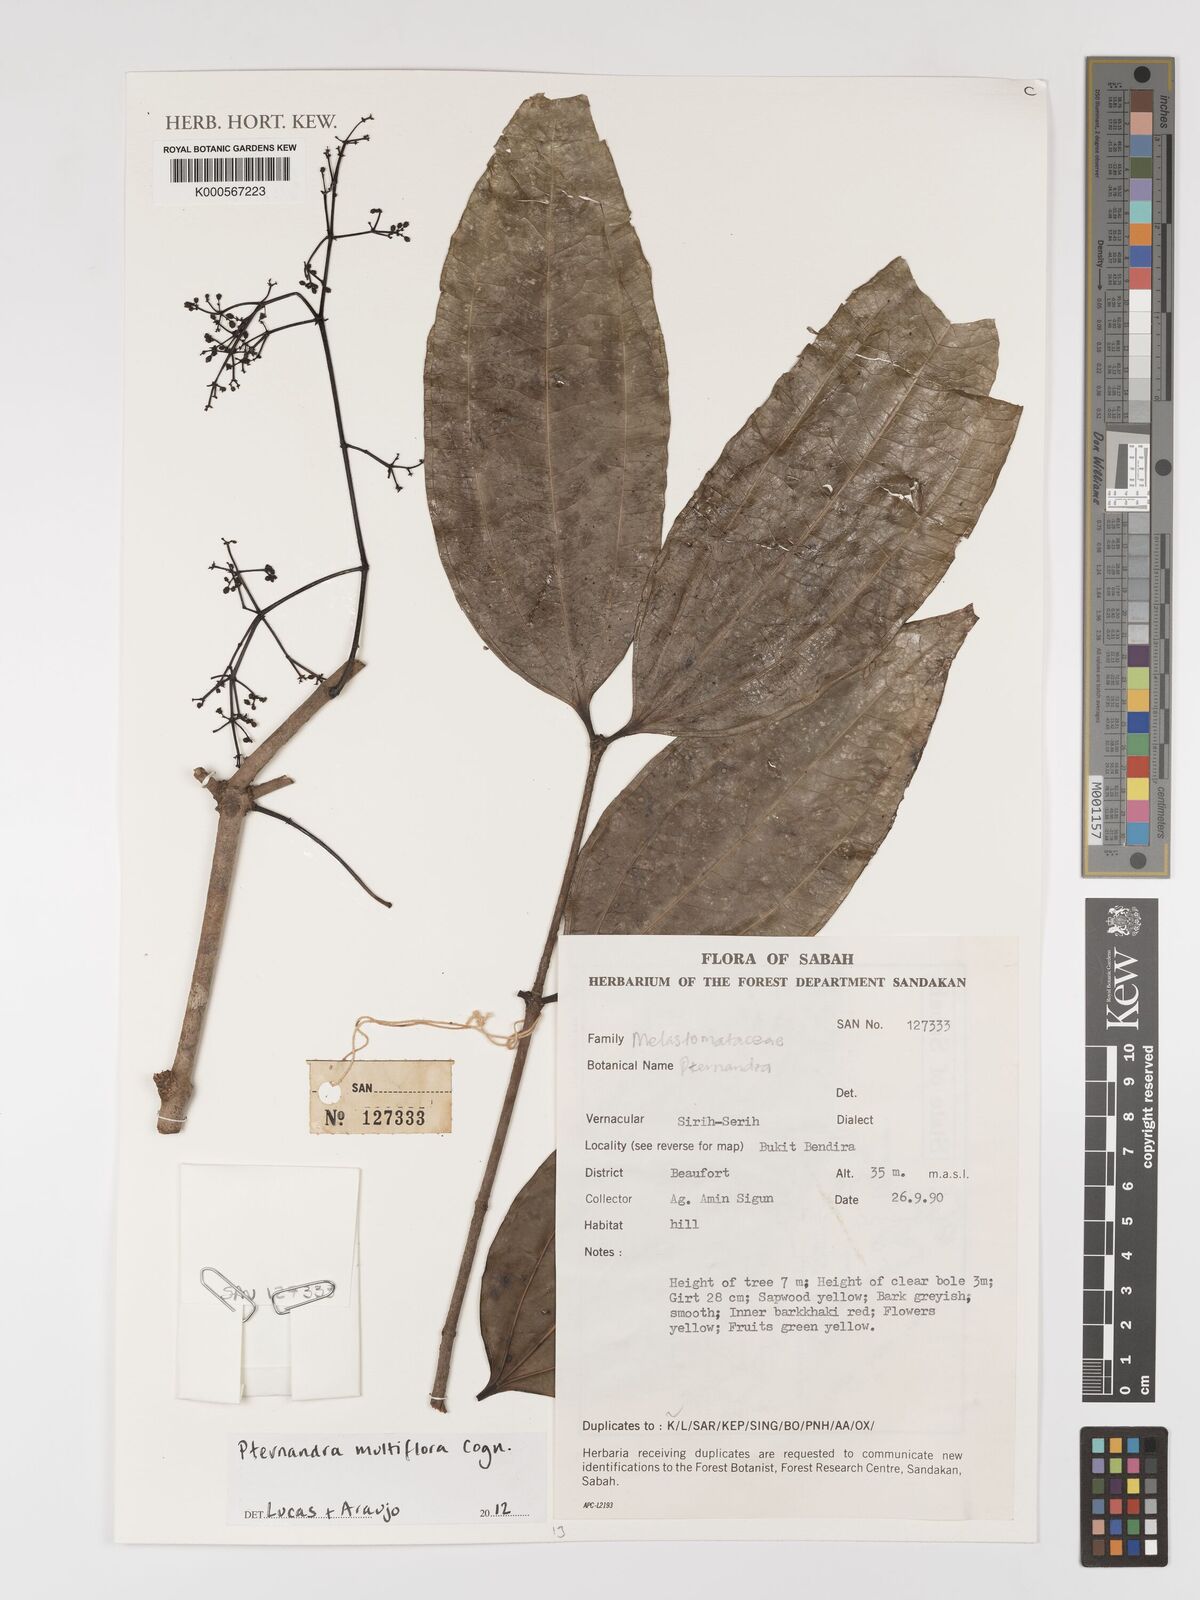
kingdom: Plantae
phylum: Tracheophyta
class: Magnoliopsida
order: Myrtales
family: Melastomataceae
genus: Pternandra
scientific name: Pternandra multiflora
